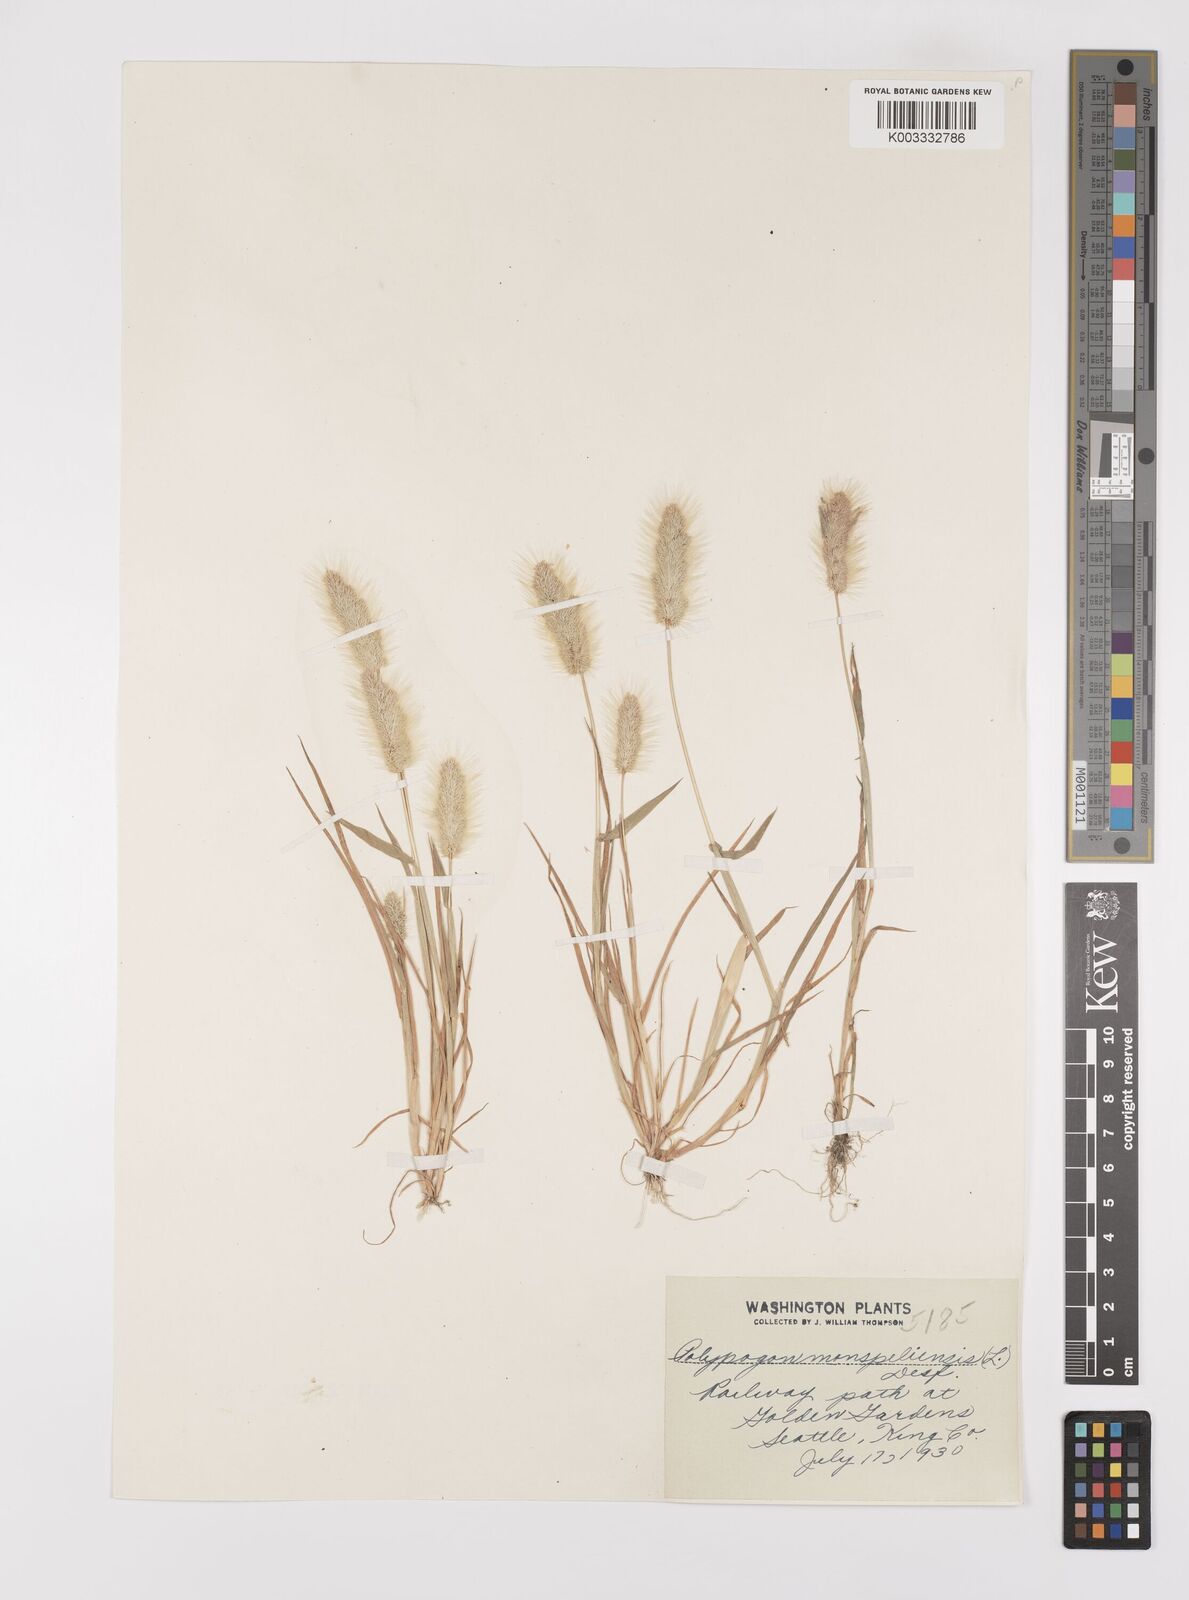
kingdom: Plantae
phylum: Tracheophyta
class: Liliopsida
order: Poales
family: Poaceae
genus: Polypogon
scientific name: Polypogon monspeliensis
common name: Annual rabbitsfoot grass
